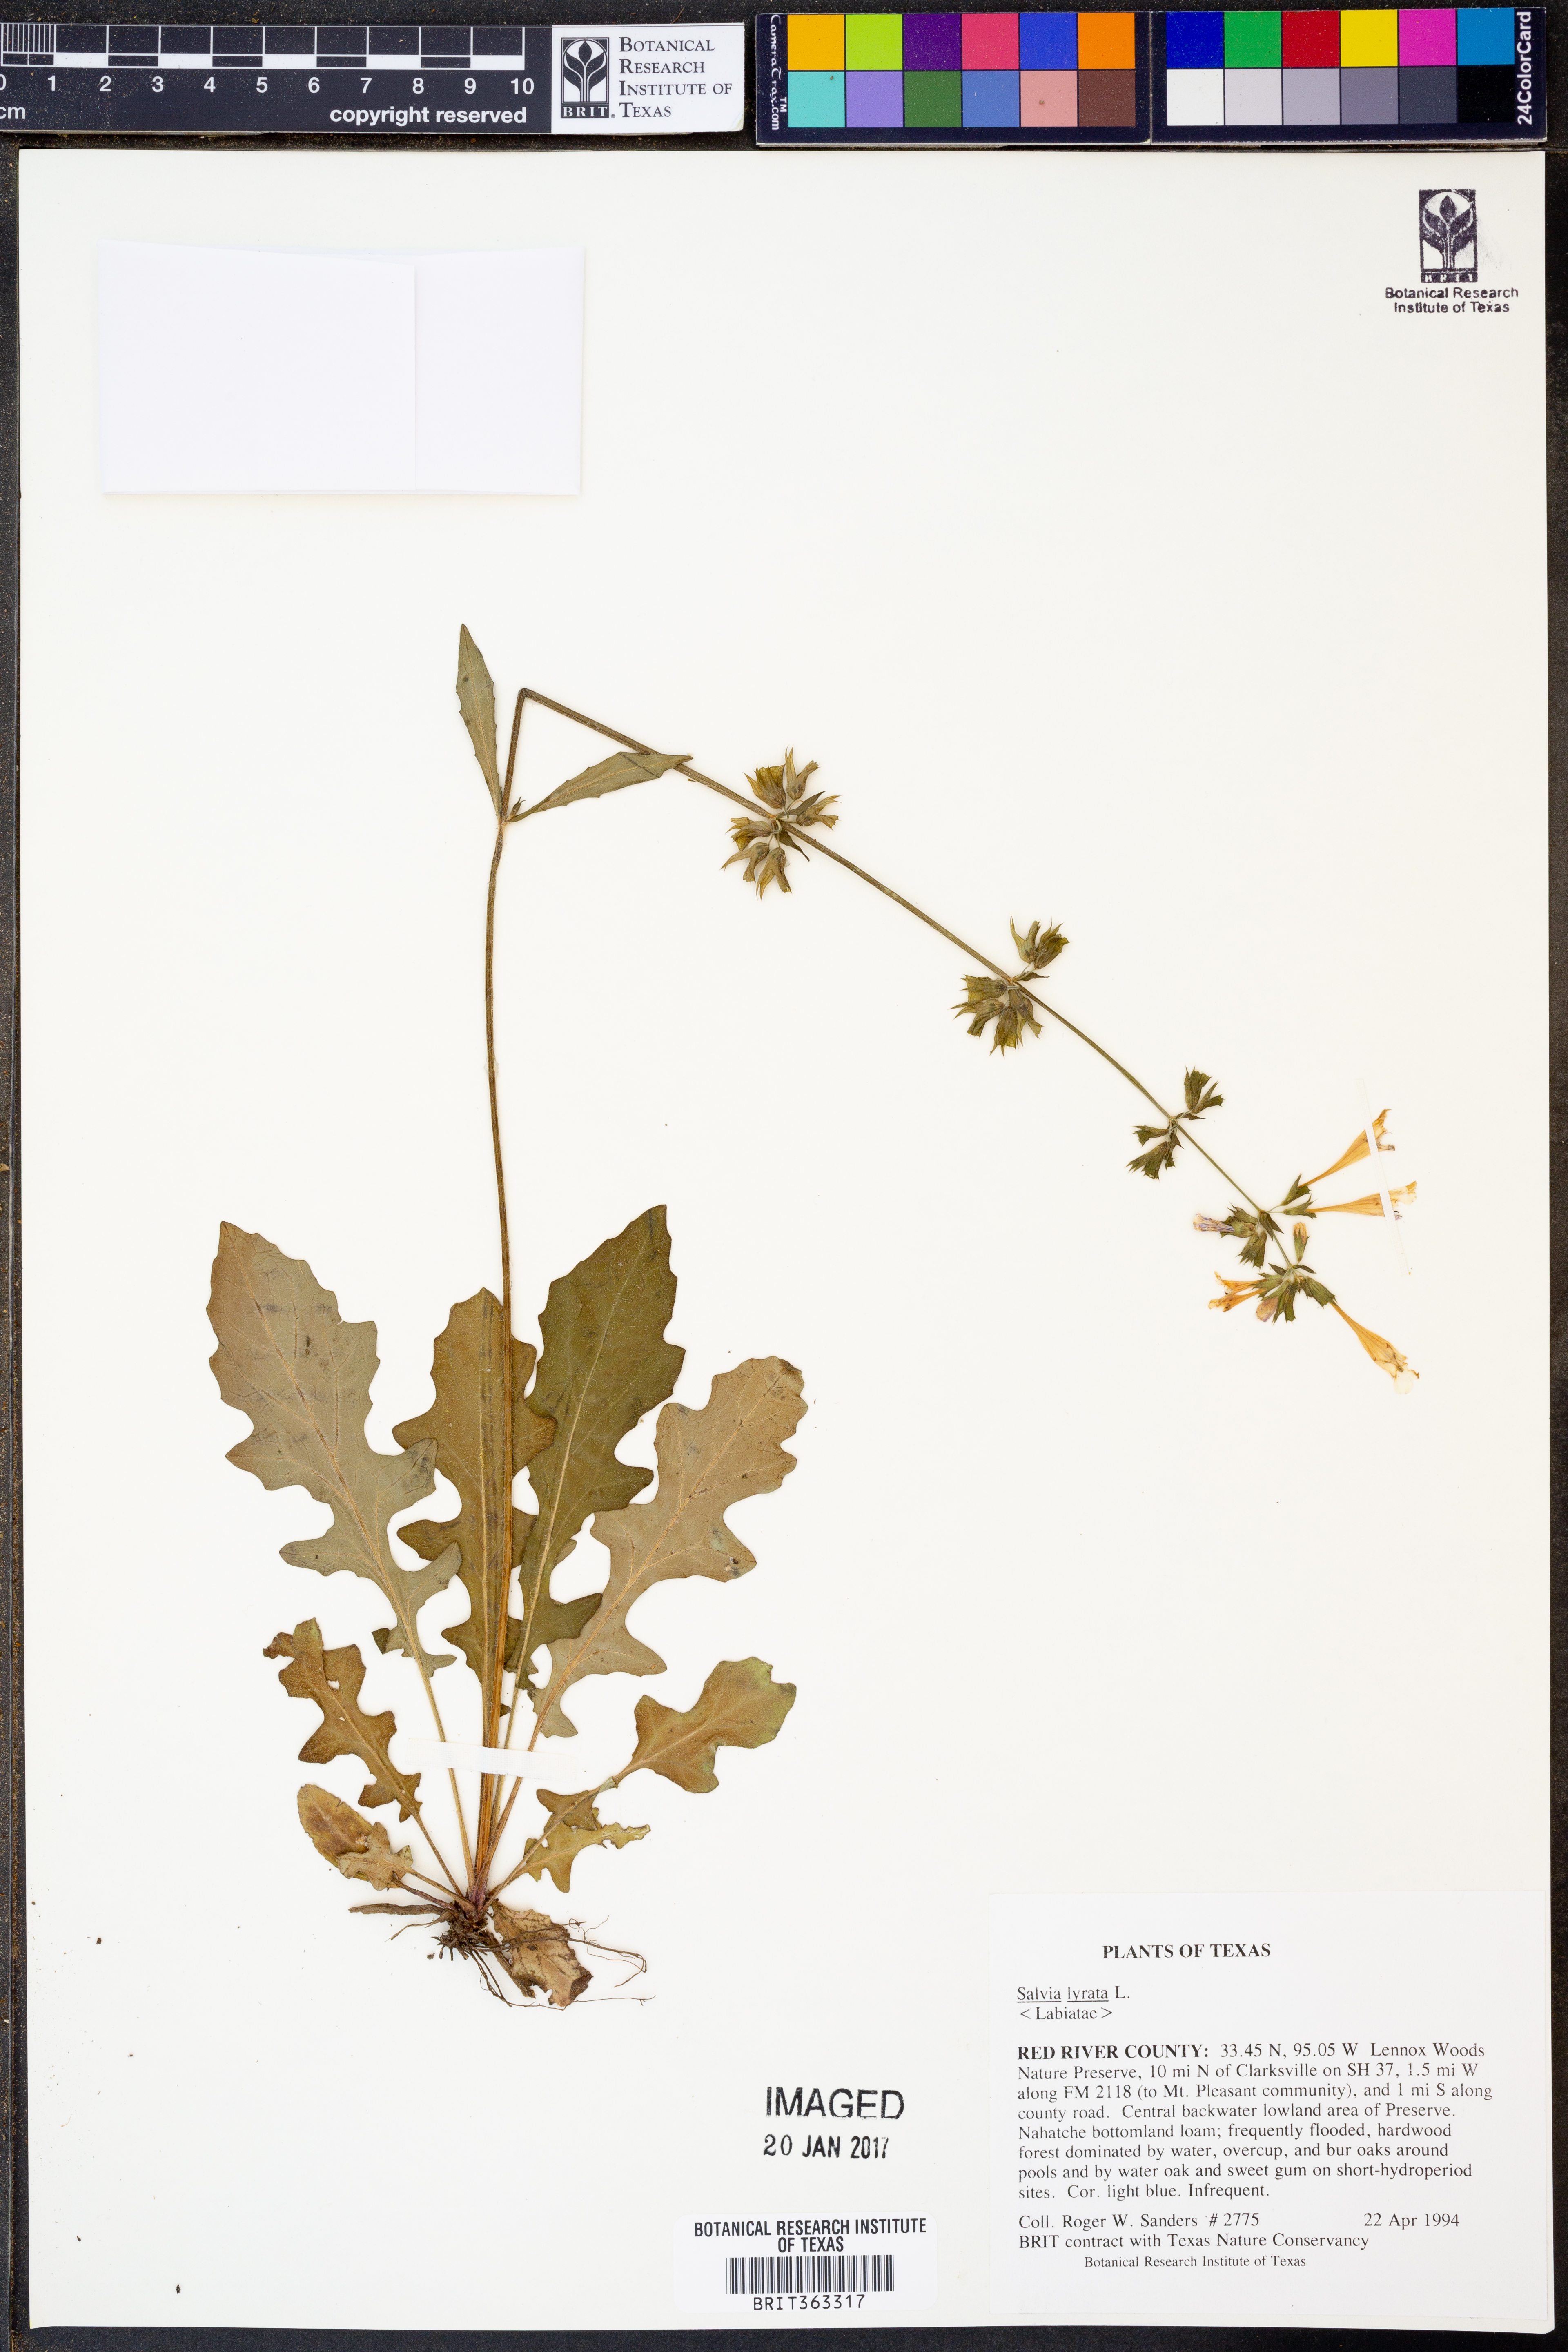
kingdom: Plantae
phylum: Tracheophyta
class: Magnoliopsida
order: Lamiales
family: Lamiaceae
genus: Salvia
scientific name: Salvia lyrata
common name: Cancerweed
